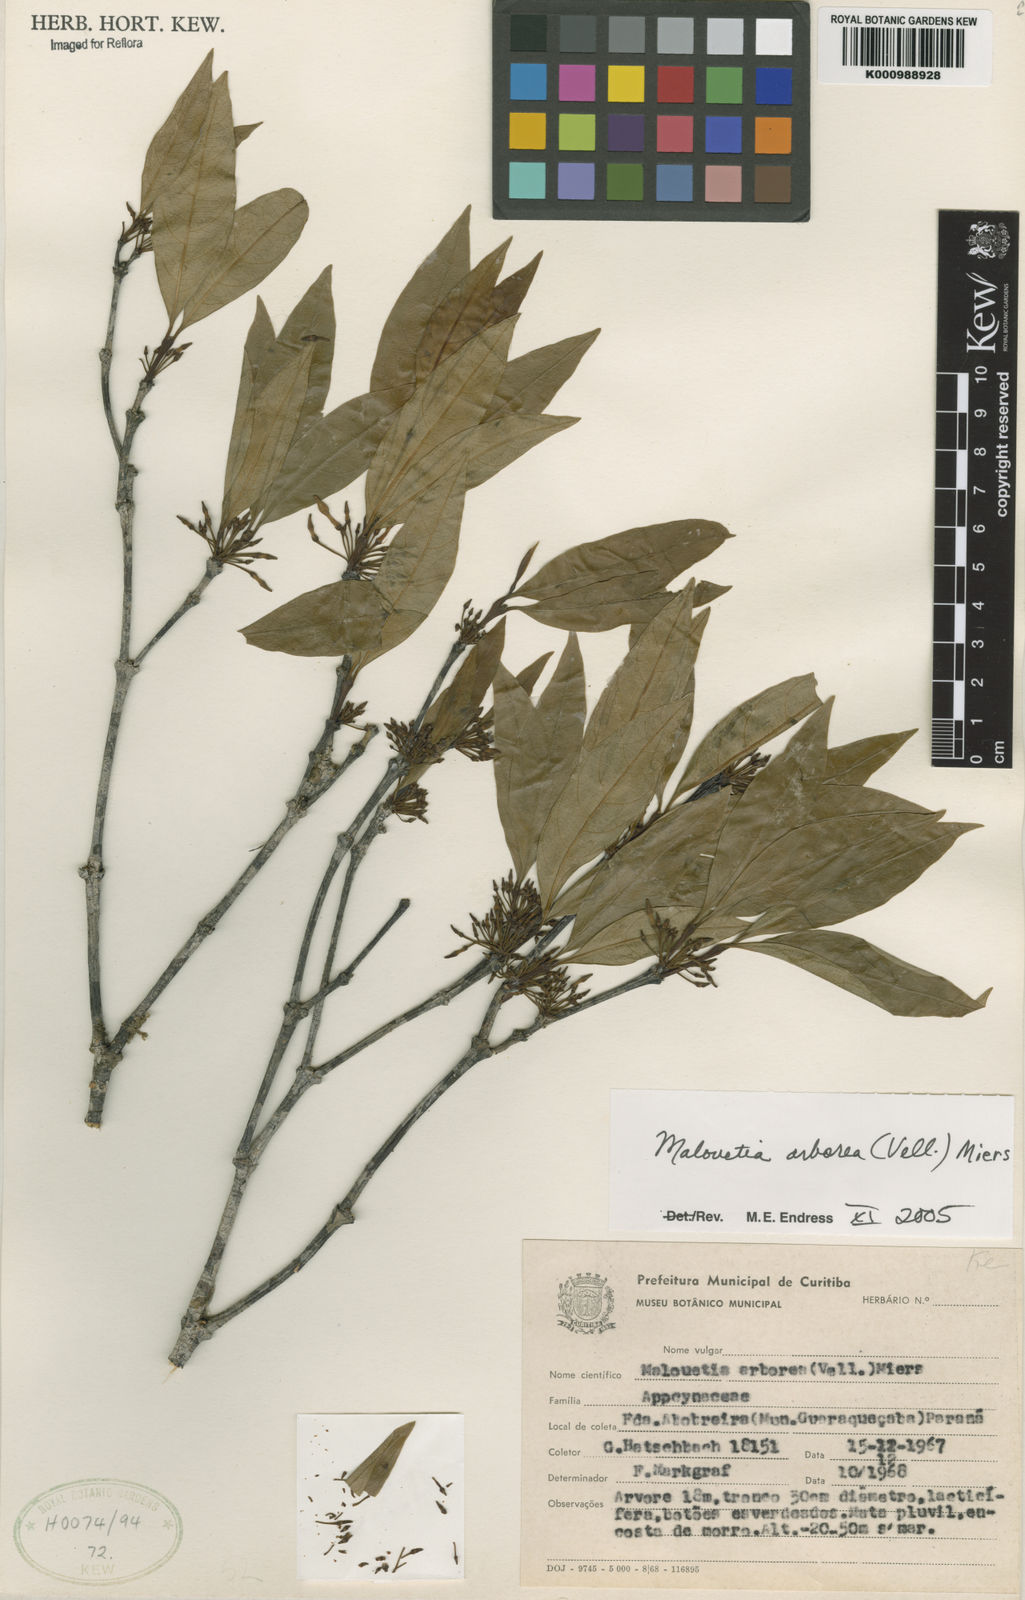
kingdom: Plantae
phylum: Tracheophyta
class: Magnoliopsida
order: Gentianales
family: Apocynaceae
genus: Malouetia
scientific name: Malouetia cestroides
